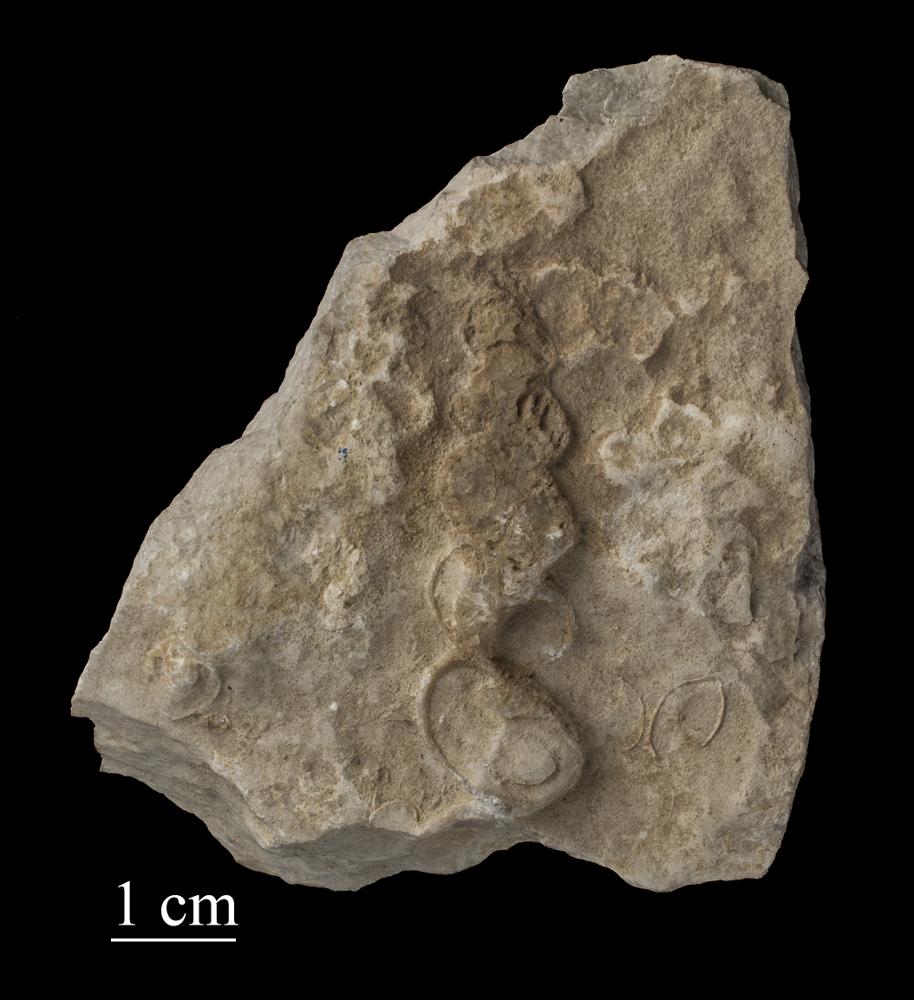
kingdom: Animalia
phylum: Mollusca
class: Gastropoda
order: Pleurotomariida
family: Murchisoniidae
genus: Murchisonia
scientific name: Murchisonia
